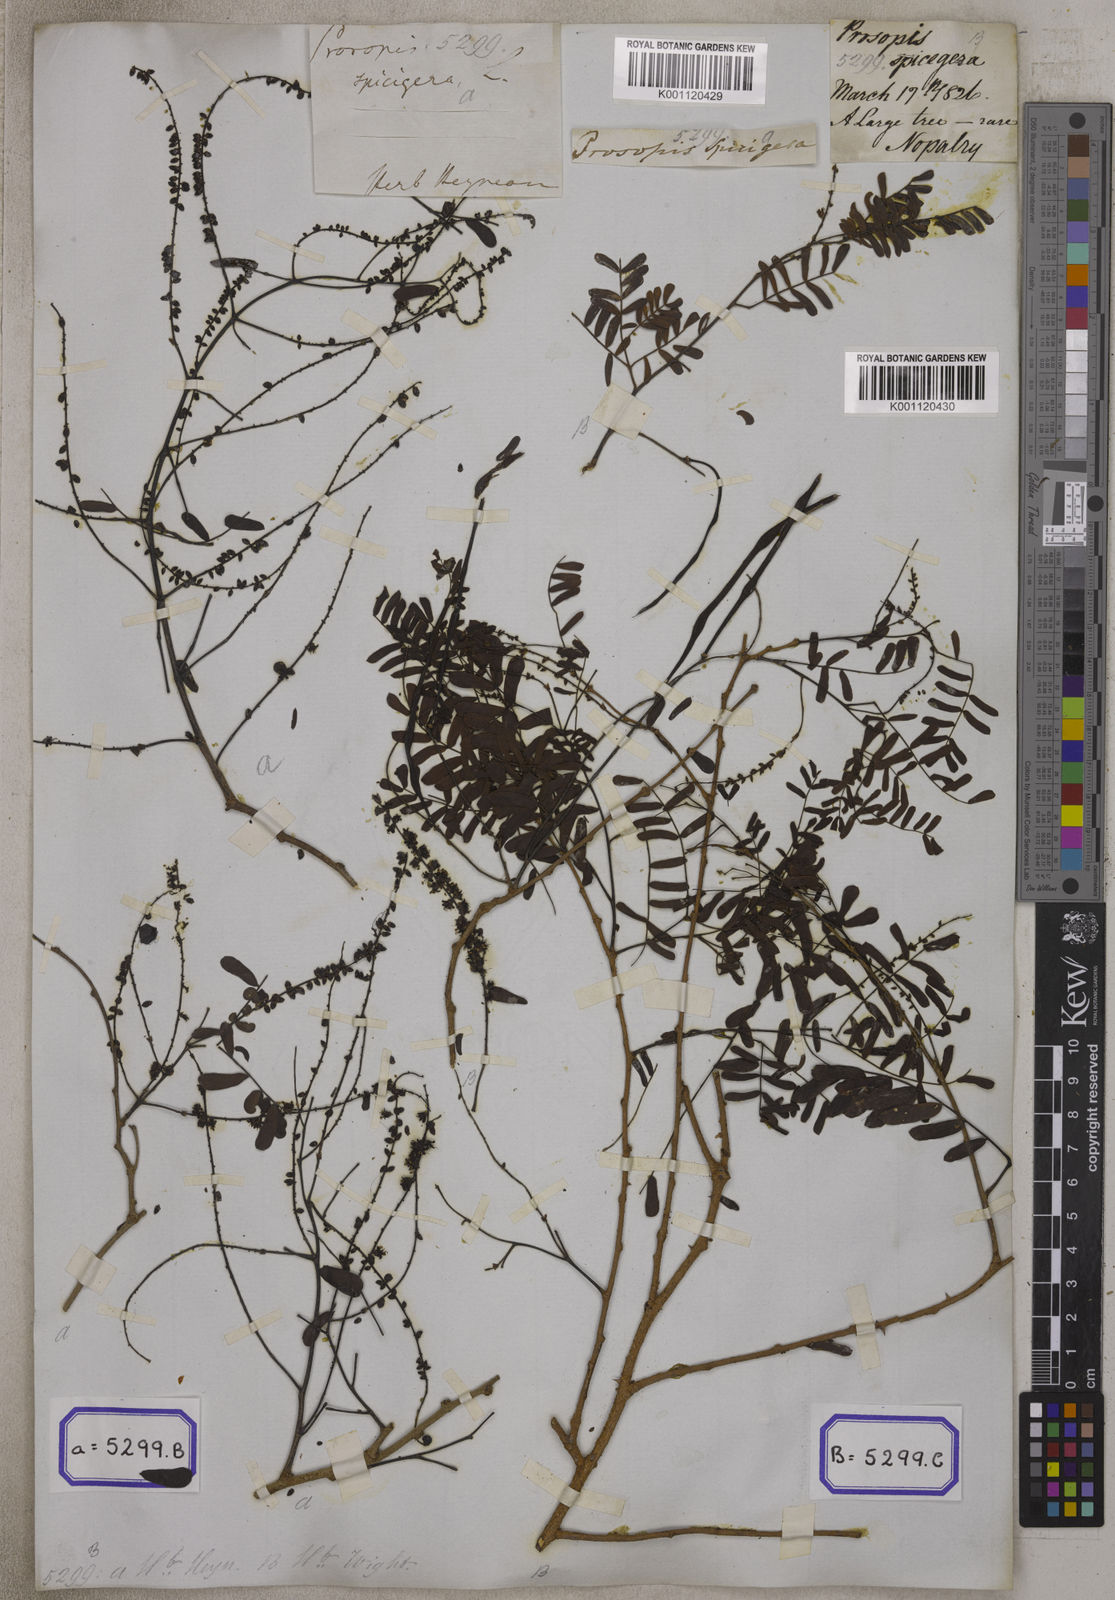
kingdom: Plantae
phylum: Tracheophyta
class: Magnoliopsida
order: Fabales
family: Fabaceae
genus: Prosopis
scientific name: Prosopis cineraria
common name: Jandi
